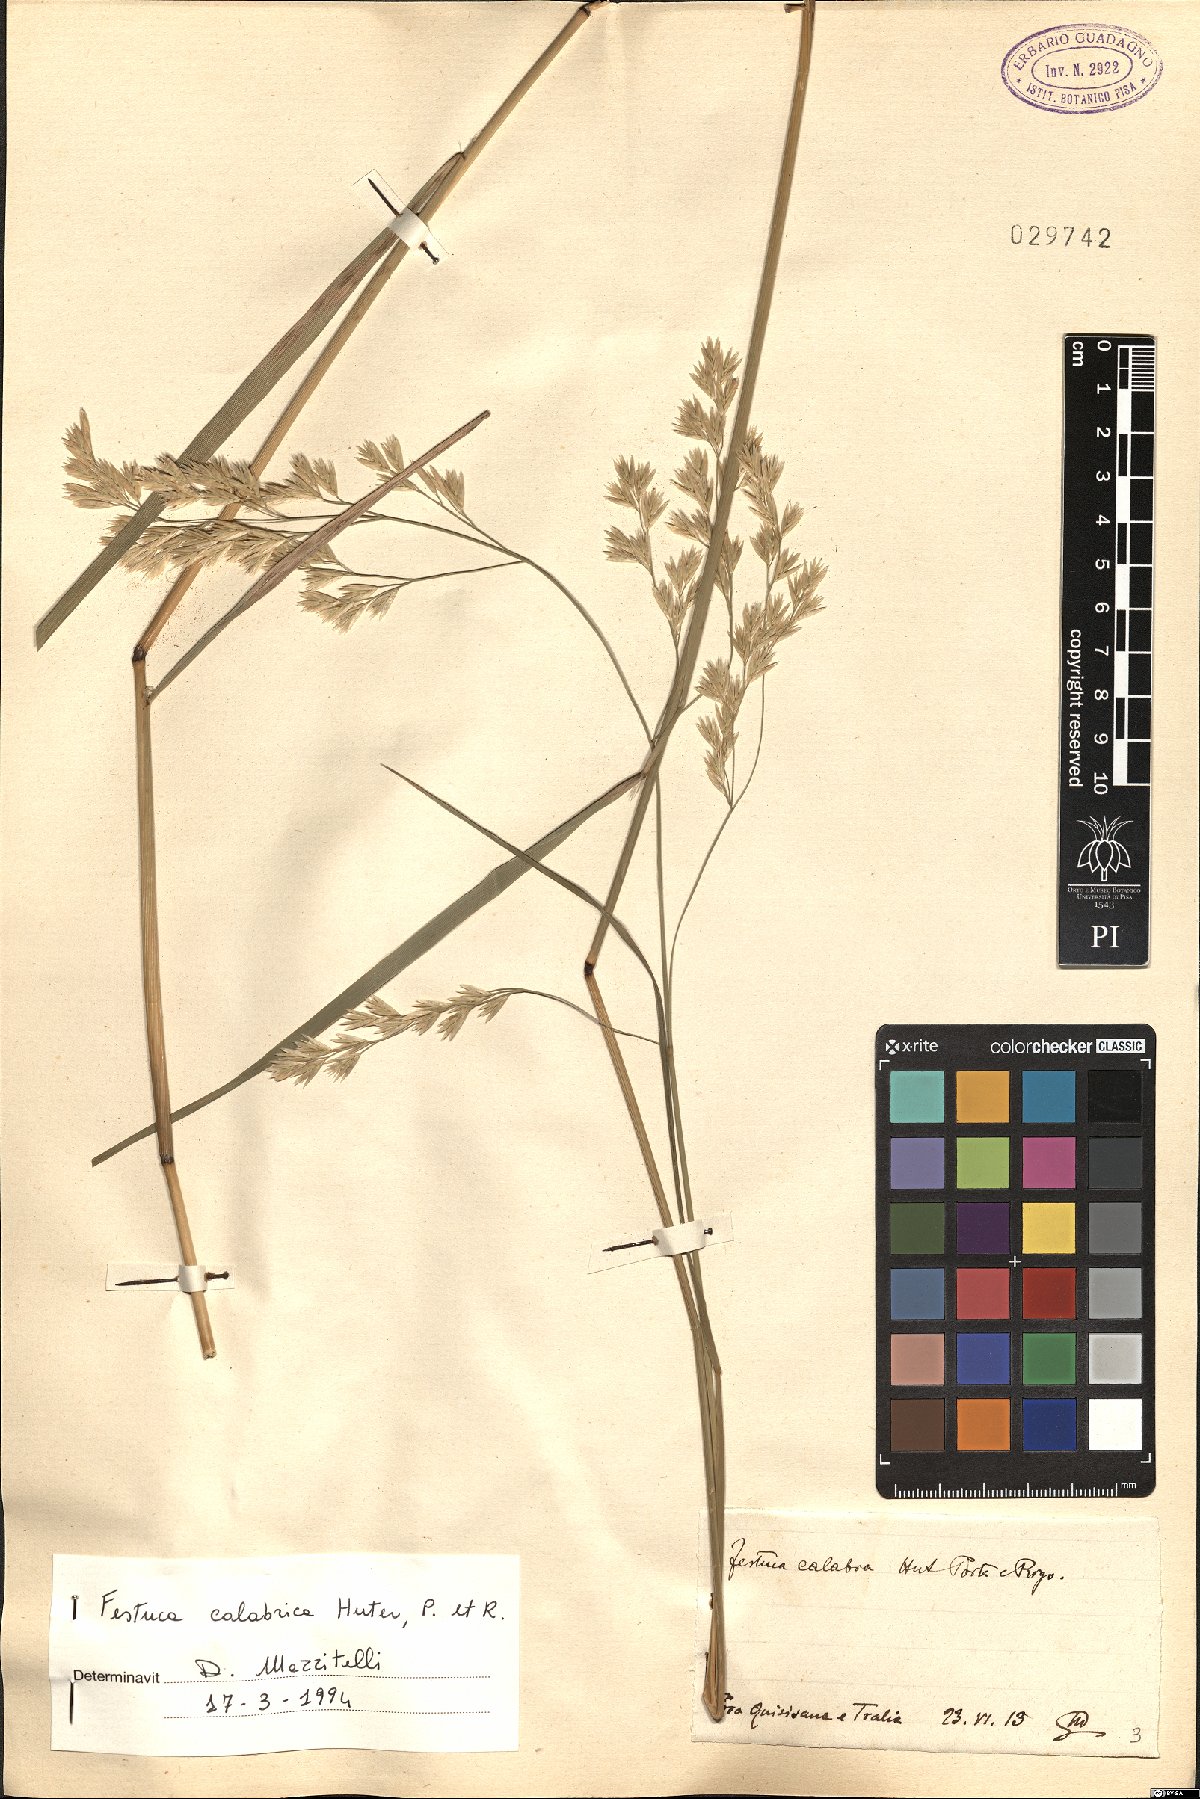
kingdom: Plantae
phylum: Tracheophyta
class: Liliopsida
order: Poales
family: Poaceae
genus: Festuca
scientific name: Festuca calabrica
